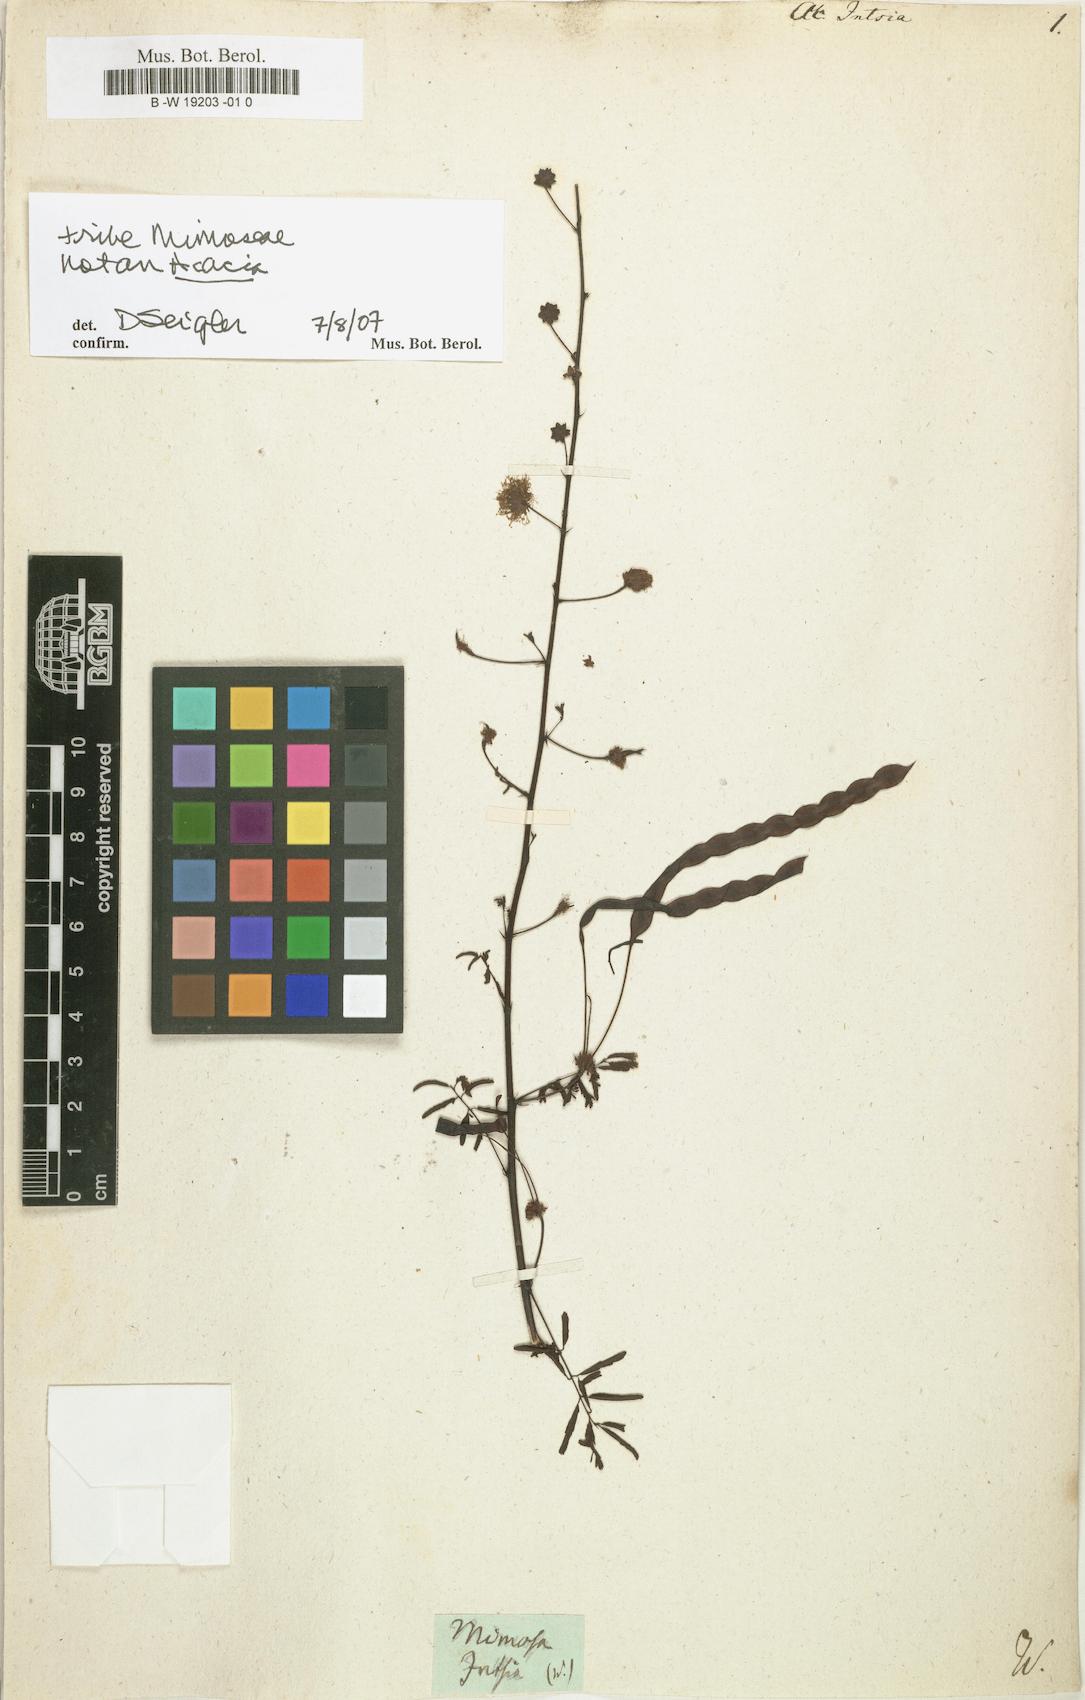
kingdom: Plantae
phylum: Tracheophyta
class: Magnoliopsida
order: Fabales
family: Fabaceae
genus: Senegalia
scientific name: Senegalia intsia
